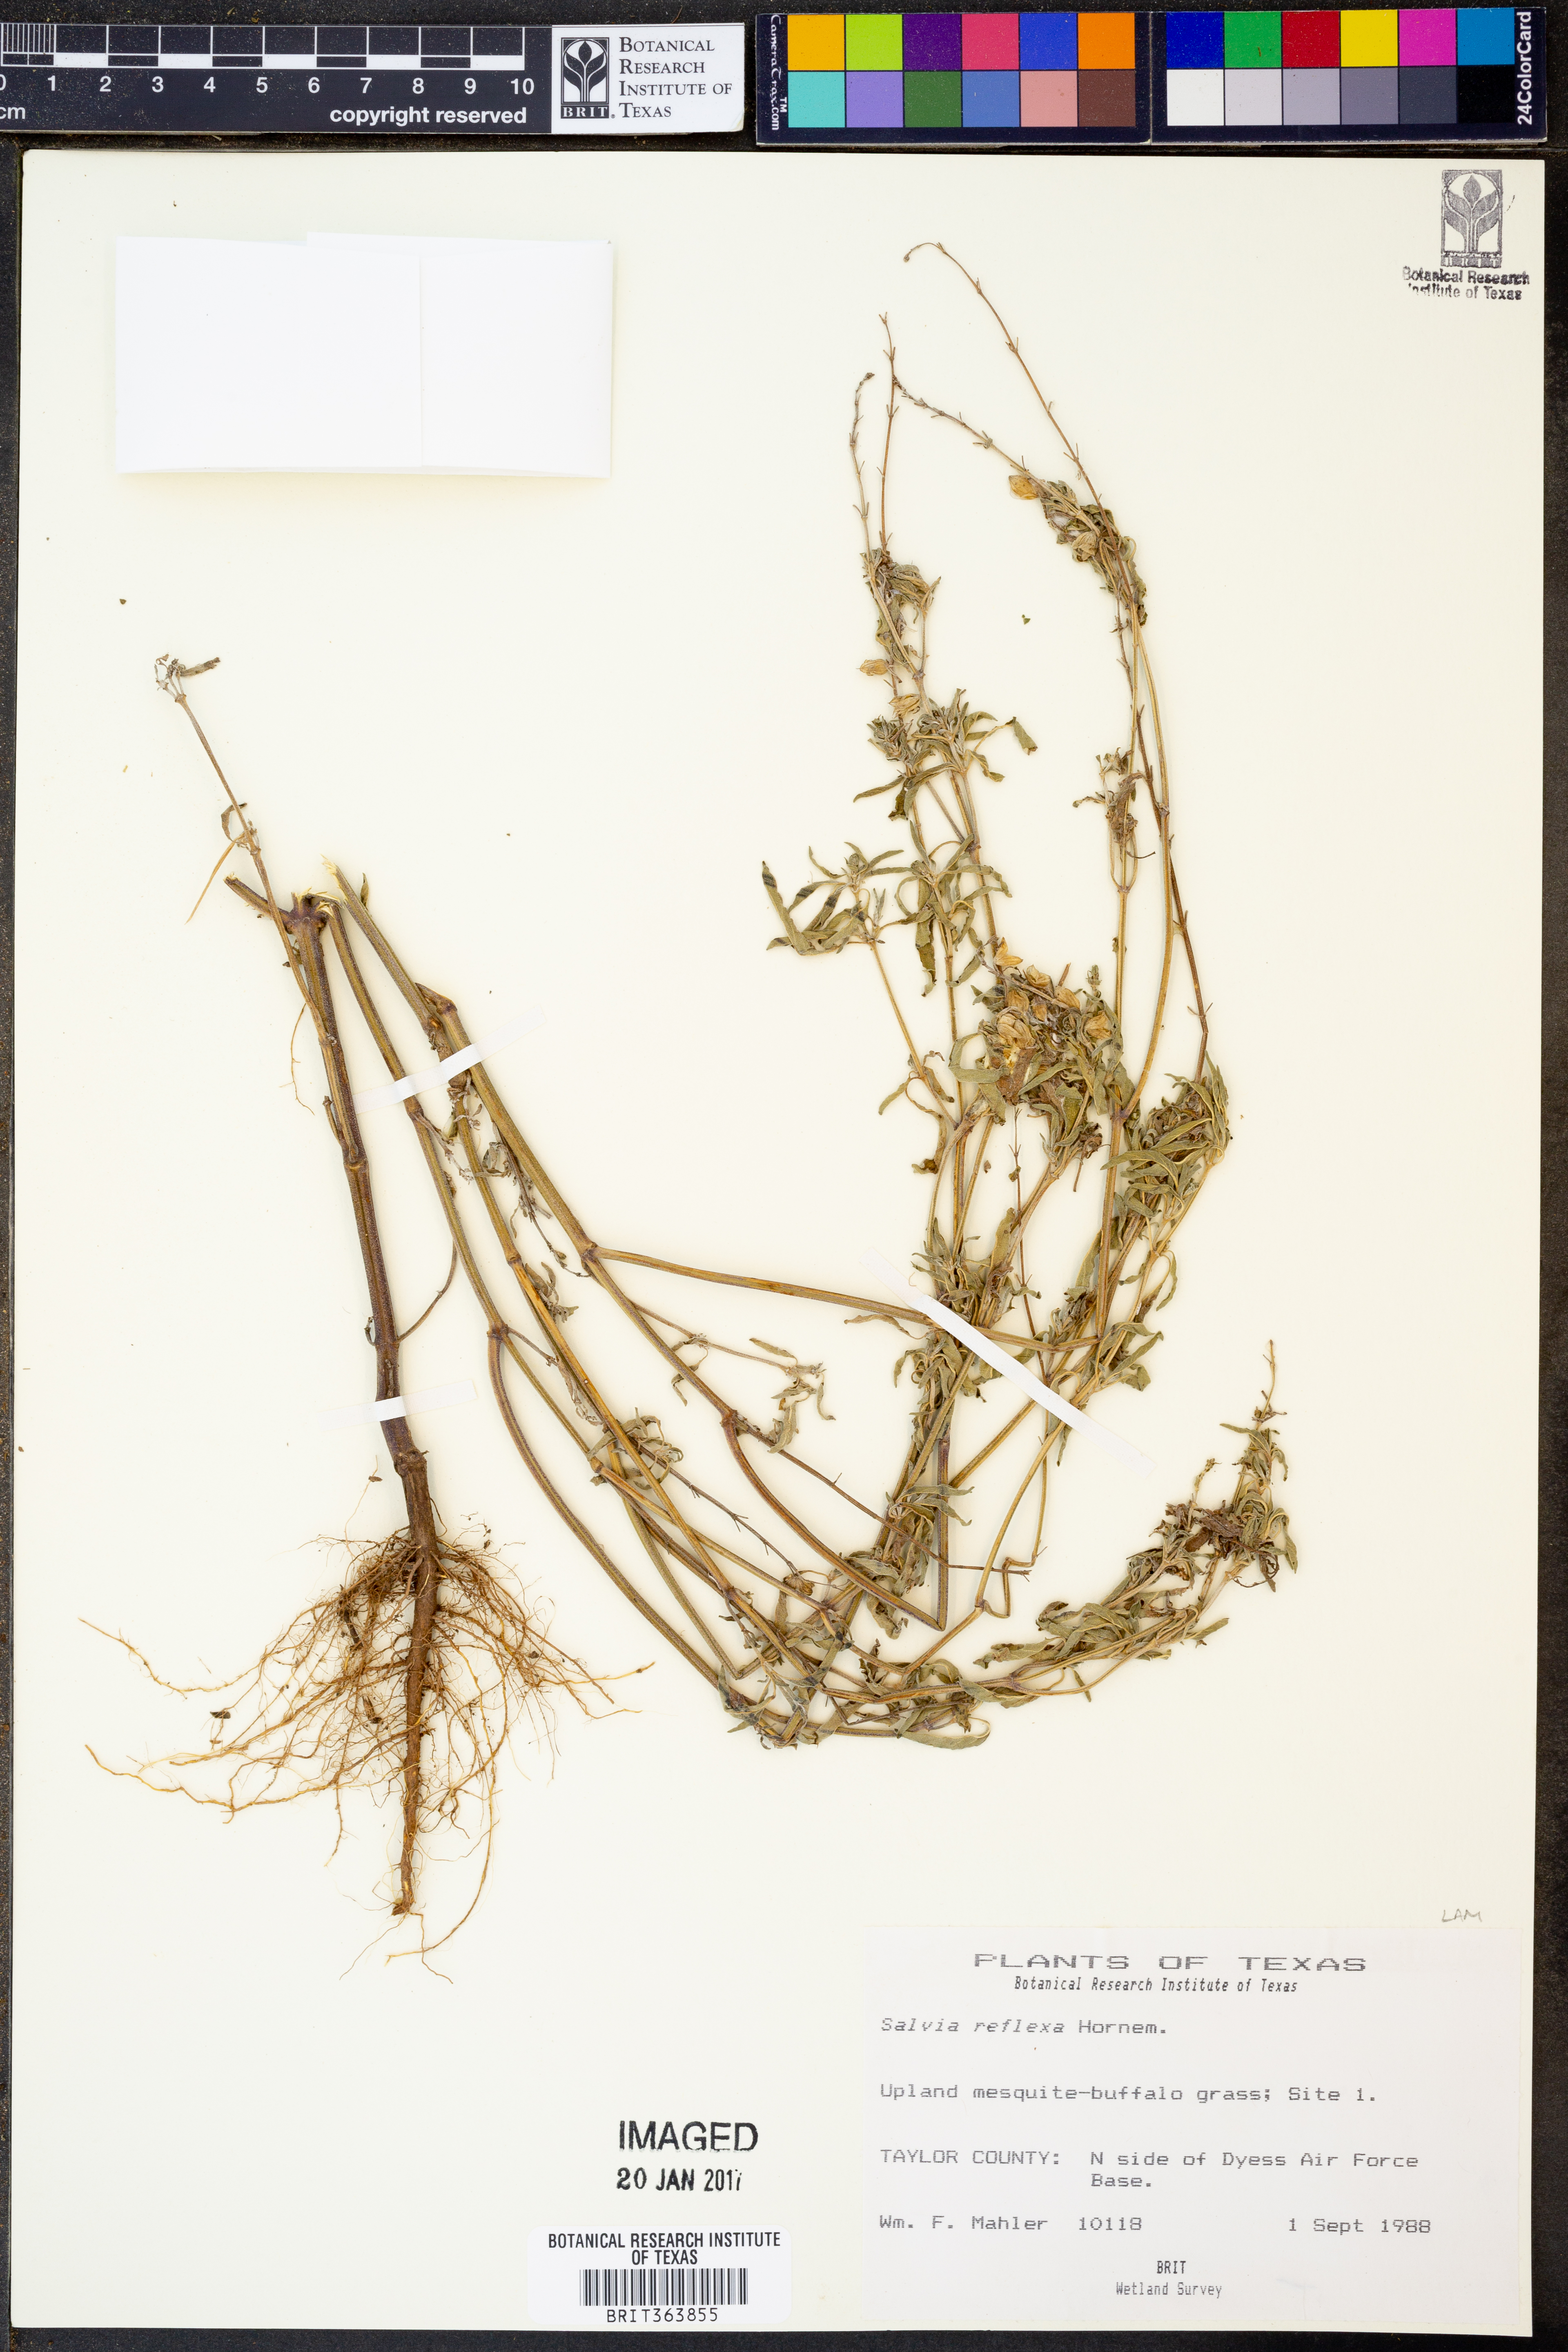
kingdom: Plantae
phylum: Tracheophyta
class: Magnoliopsida
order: Lamiales
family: Lamiaceae
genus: Salvia
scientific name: Salvia reflexa
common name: Mintweed
